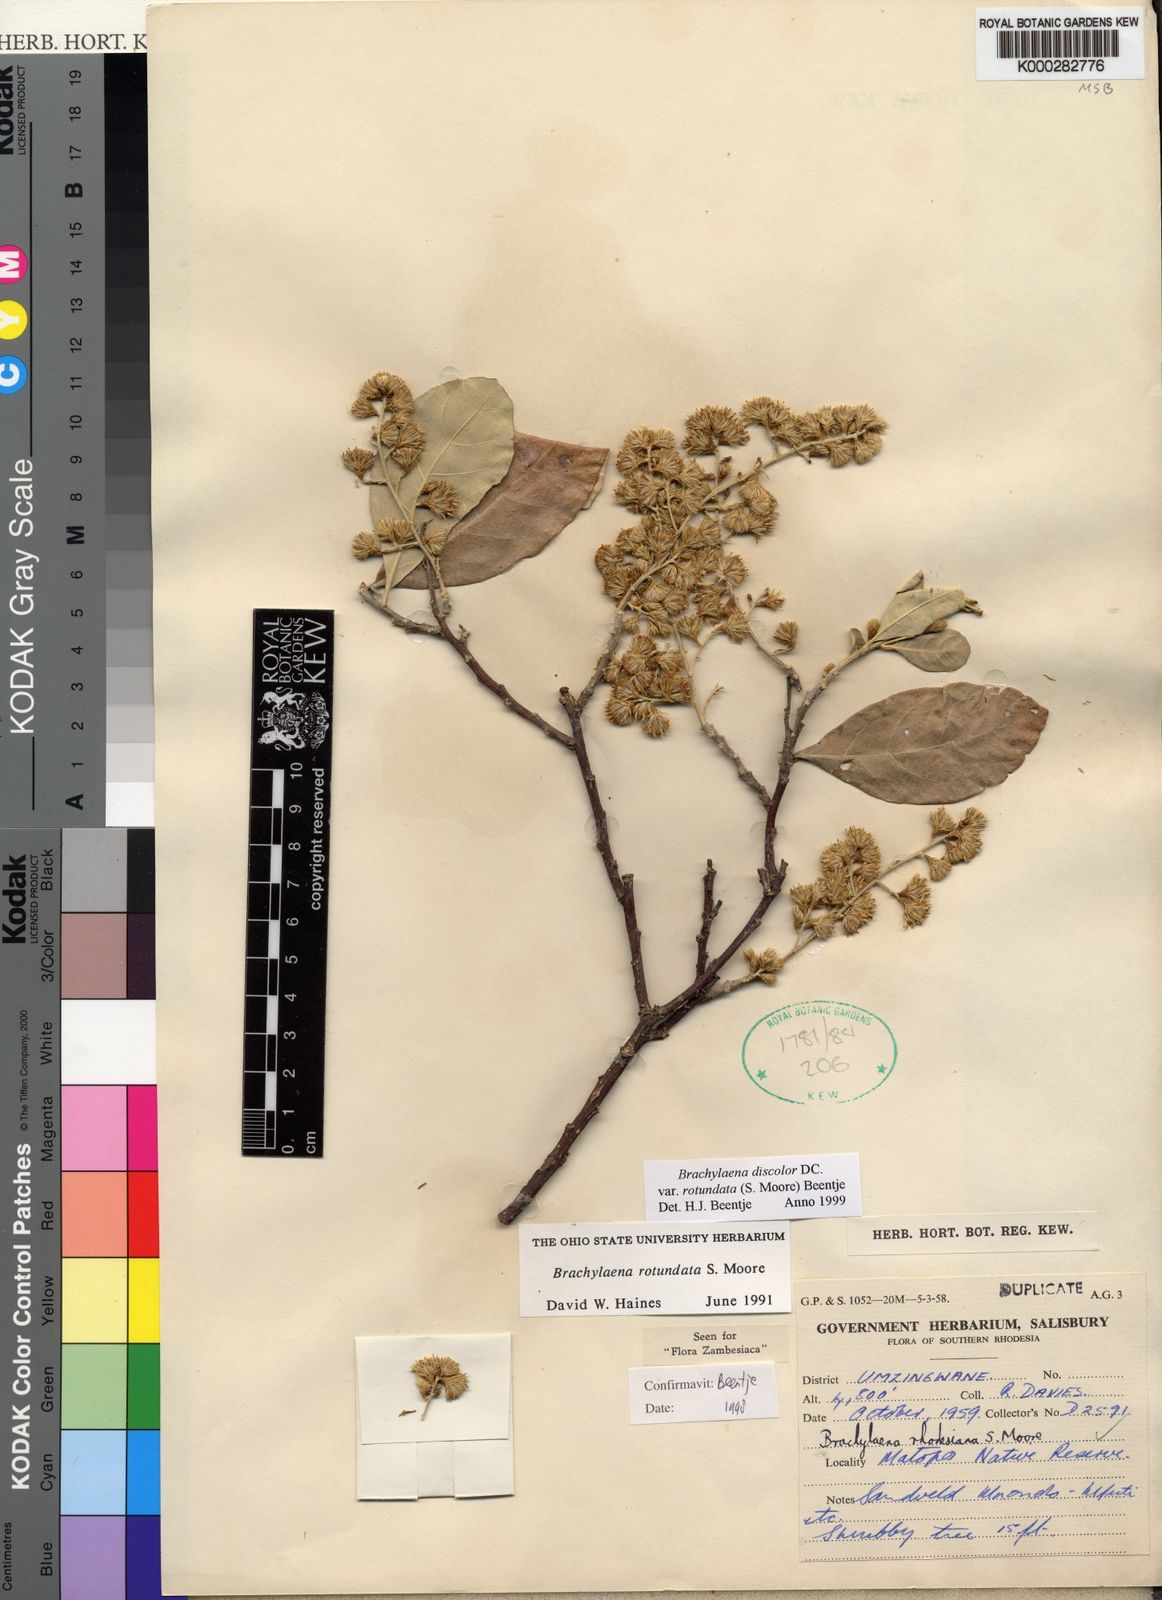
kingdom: Plantae
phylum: Tracheophyta
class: Magnoliopsida
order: Asterales
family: Asteraceae
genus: Brachylaena
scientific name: Brachylaena discolor
